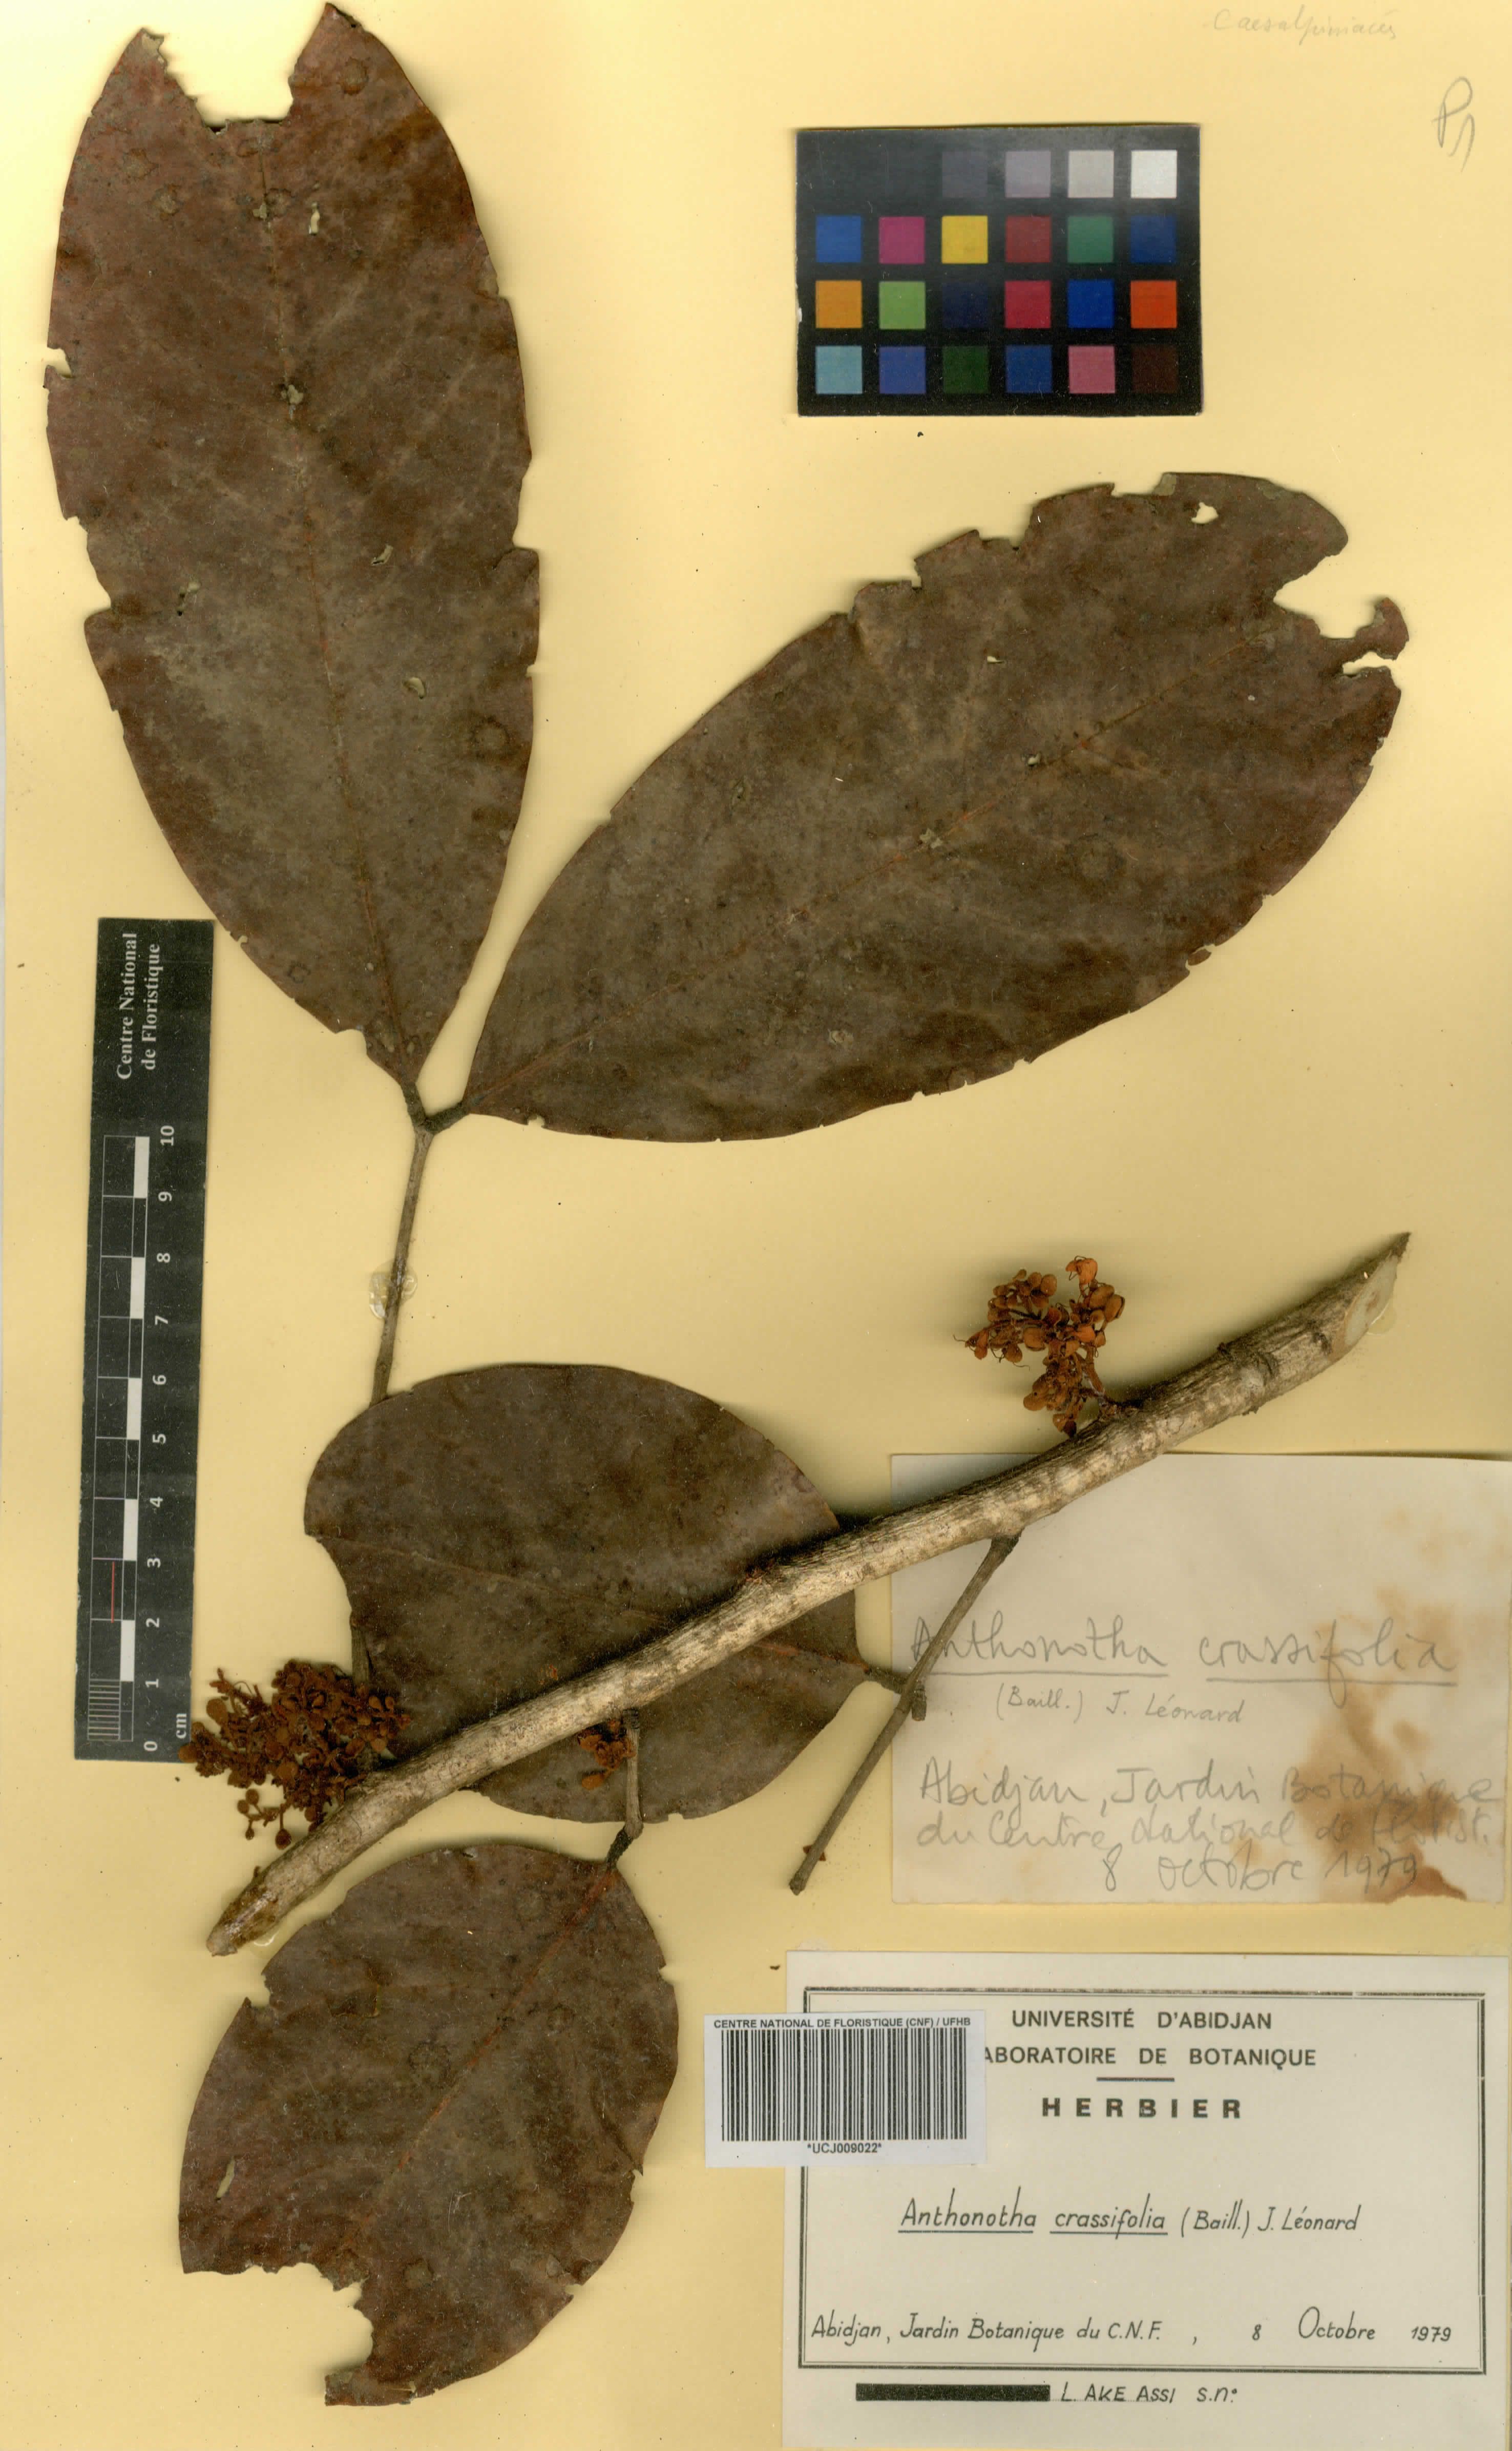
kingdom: Plantae
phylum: Tracheophyta
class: Magnoliopsida
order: Fabales
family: Fabaceae
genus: Anthonotha
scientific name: Anthonotha crassifolia
